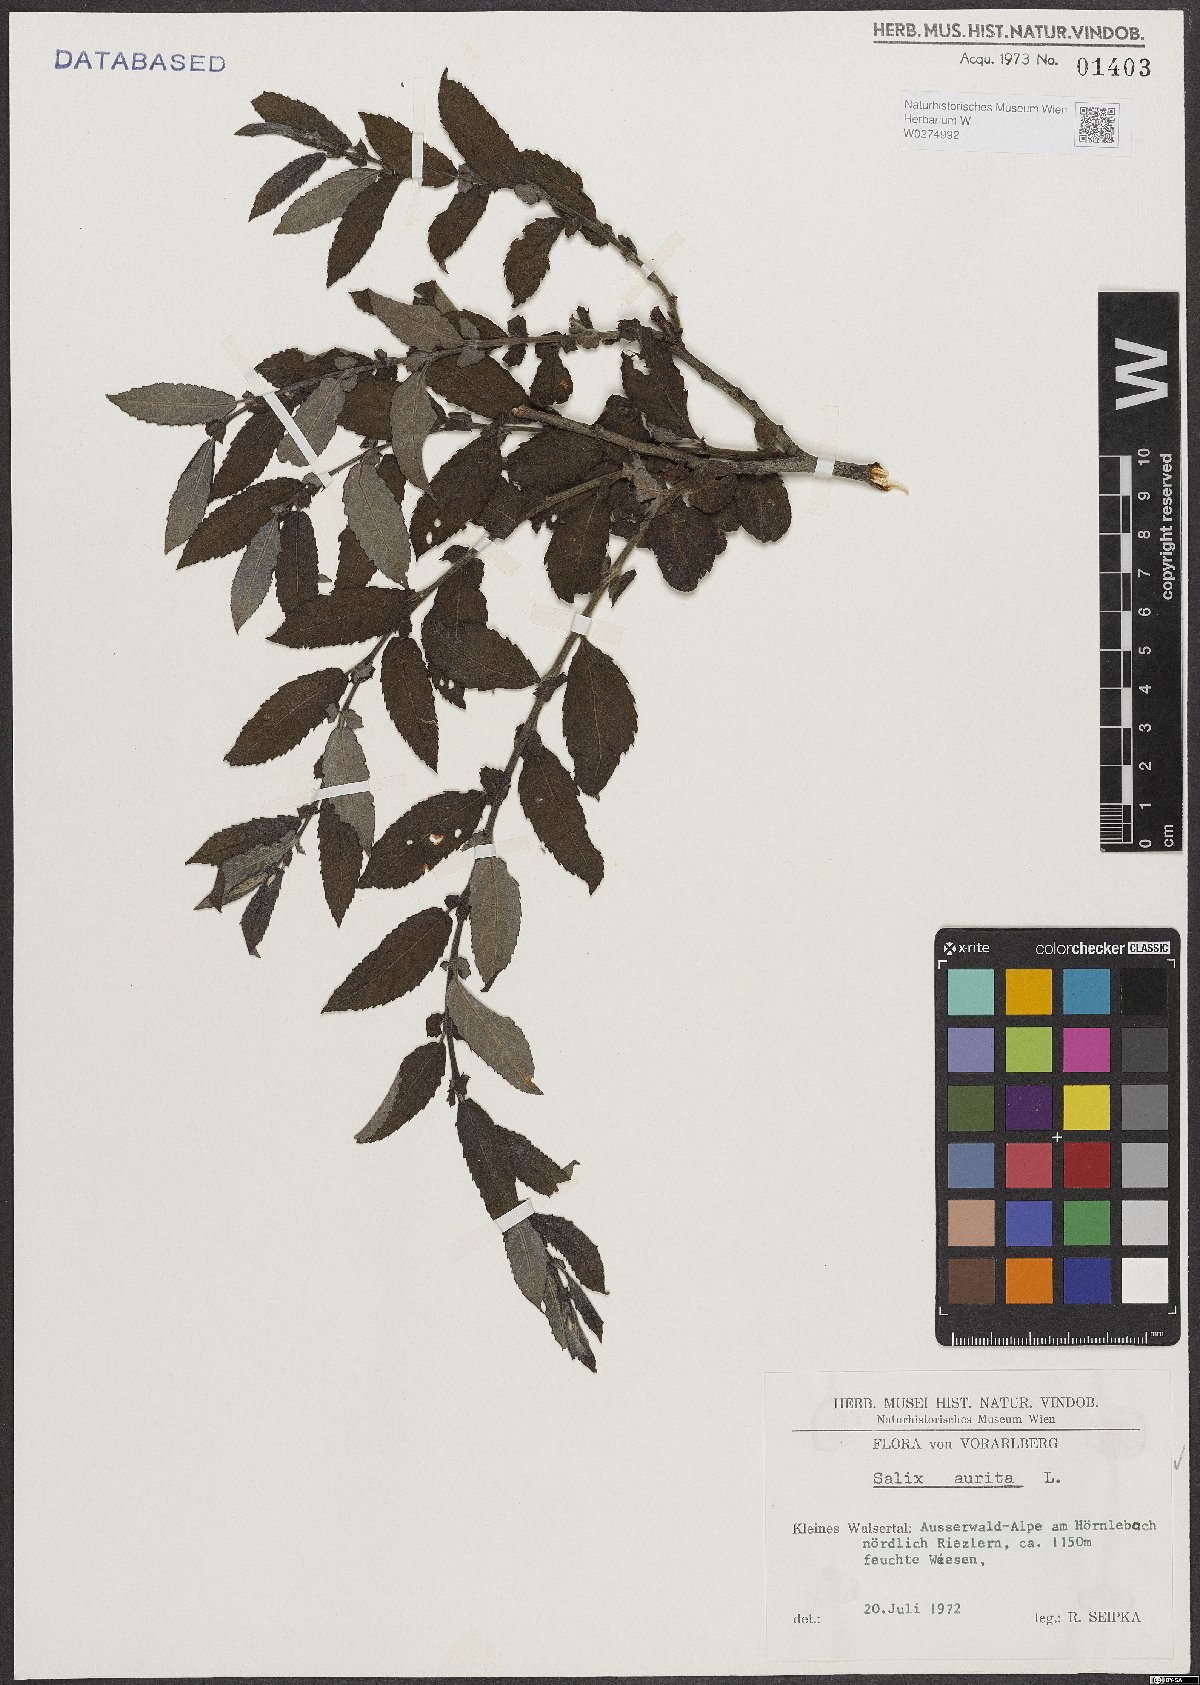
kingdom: Plantae
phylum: Tracheophyta
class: Magnoliopsida
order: Malpighiales
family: Salicaceae
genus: Salix
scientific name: Salix aurita
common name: Eared willow
